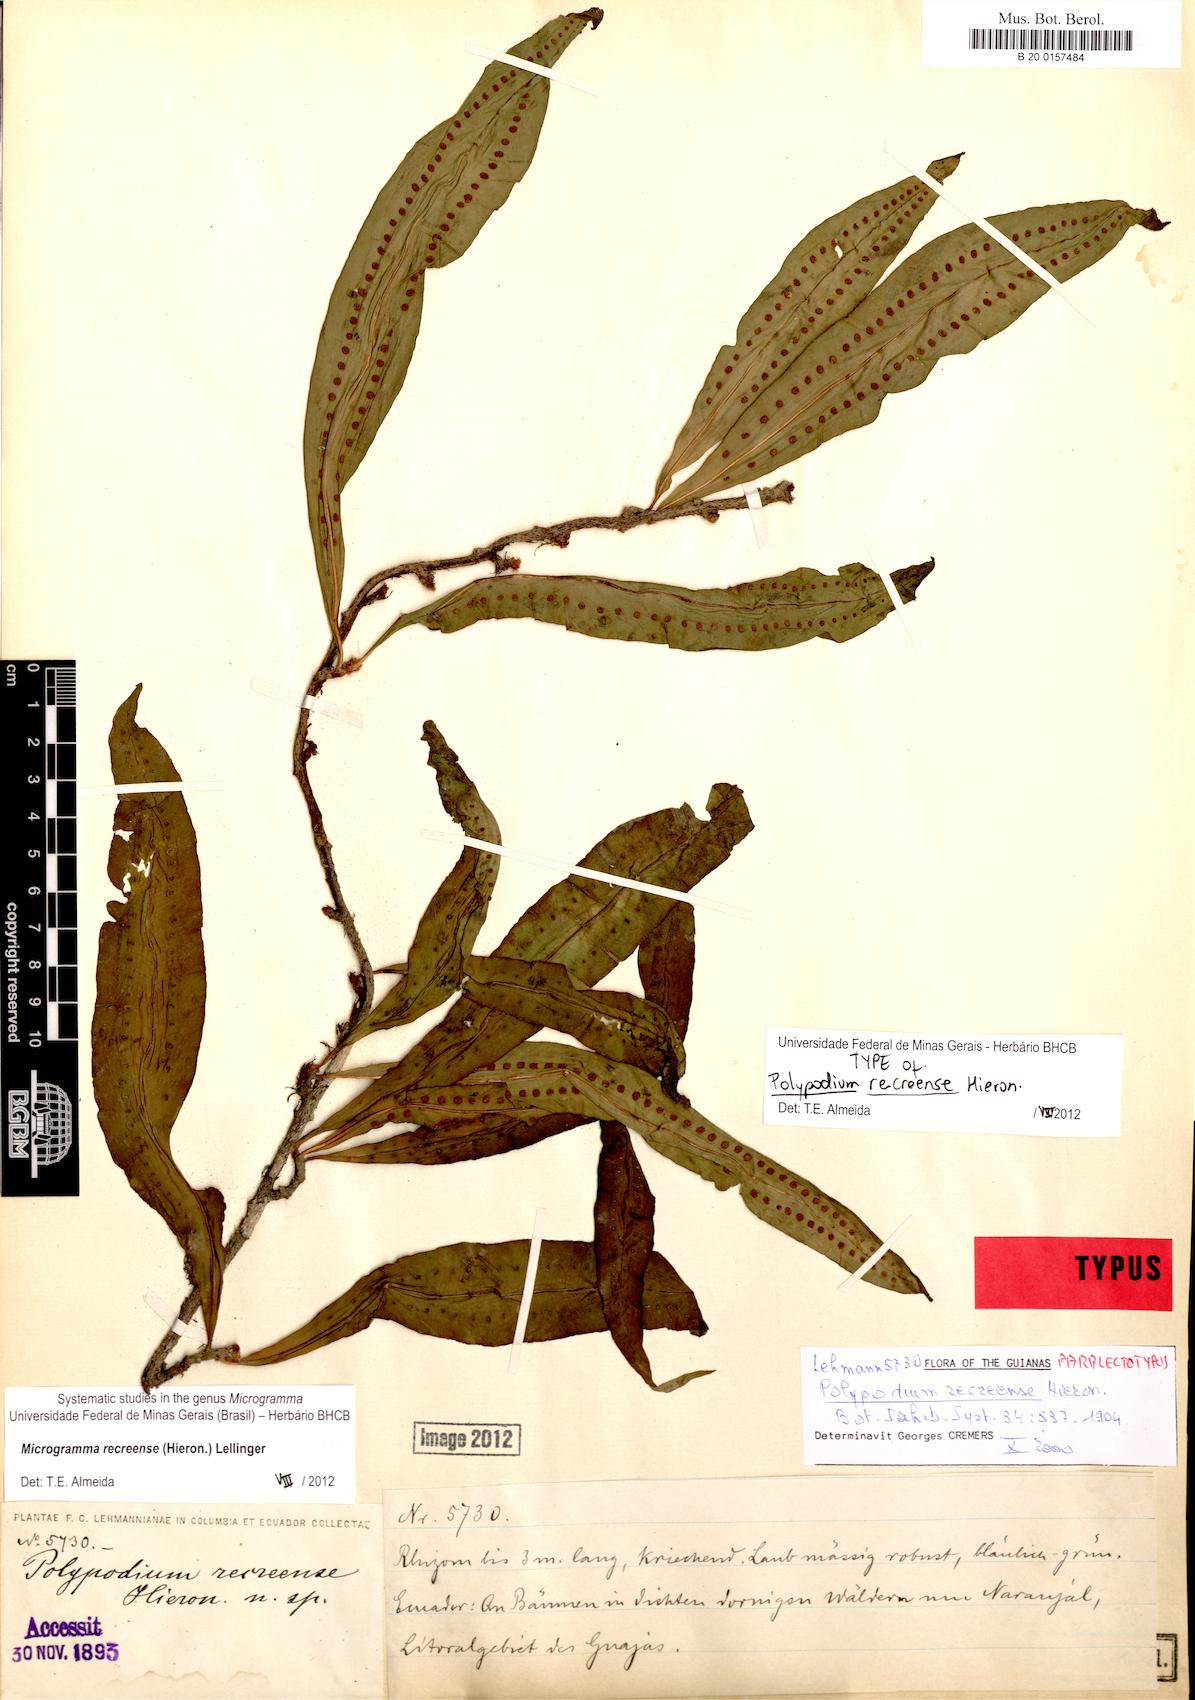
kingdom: Plantae
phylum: Tracheophyta
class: Polypodiopsida
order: Polypodiales
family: Polypodiaceae
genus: Microgramma
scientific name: Microgramma recreense
